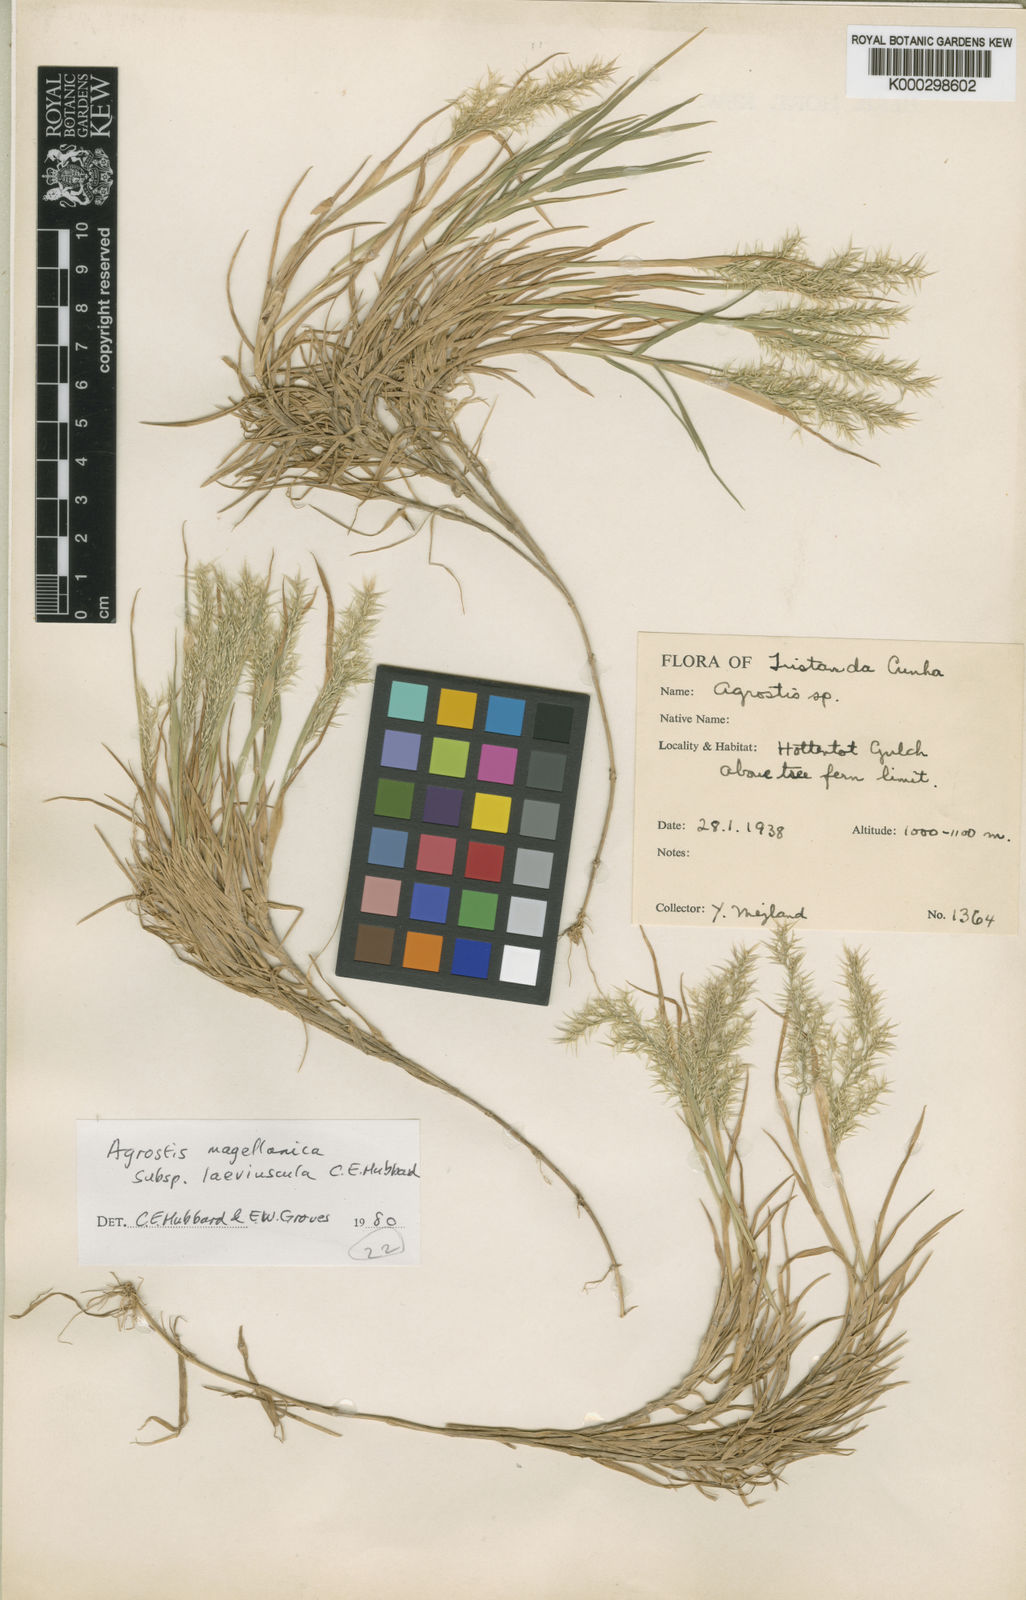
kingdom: Plantae
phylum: Tracheophyta
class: Liliopsida
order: Poales
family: Poaceae
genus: Polypogon
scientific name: Polypogon magellanicus
